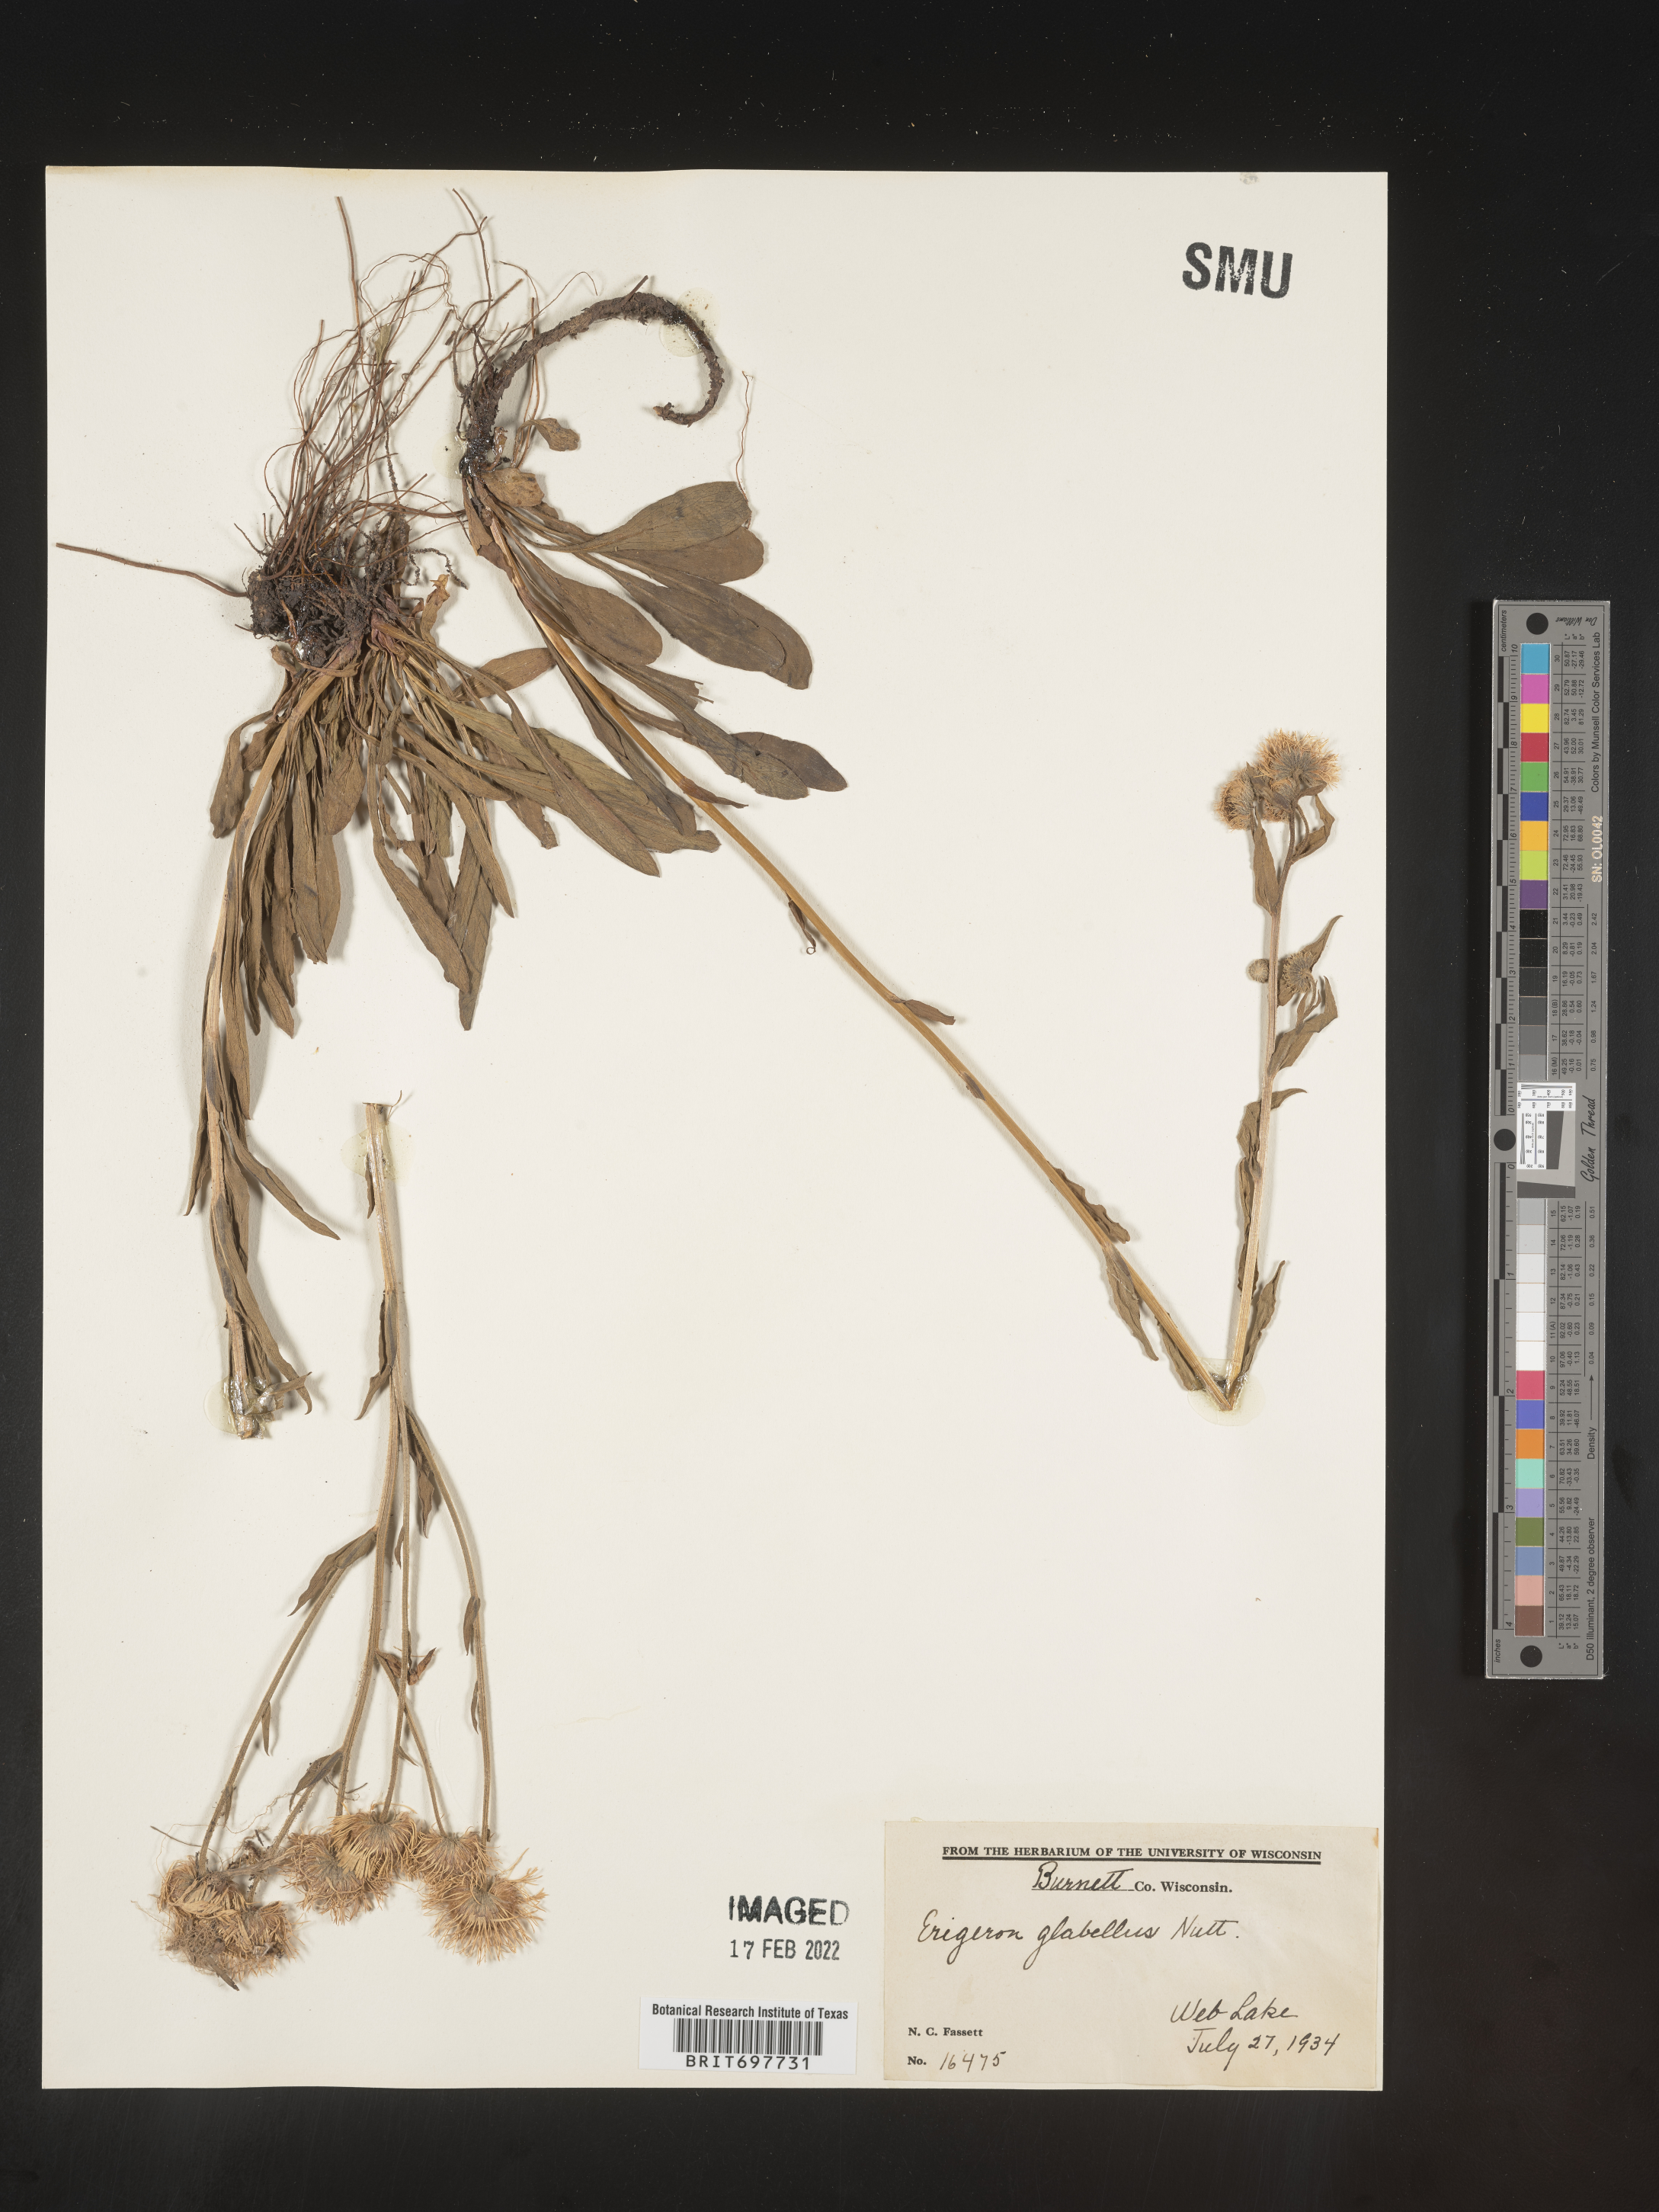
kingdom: Plantae
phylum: Tracheophyta
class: Magnoliopsida
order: Asterales
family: Asteraceae
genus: Erigeron
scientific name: Erigeron glabellus
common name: Smooth fleabane
